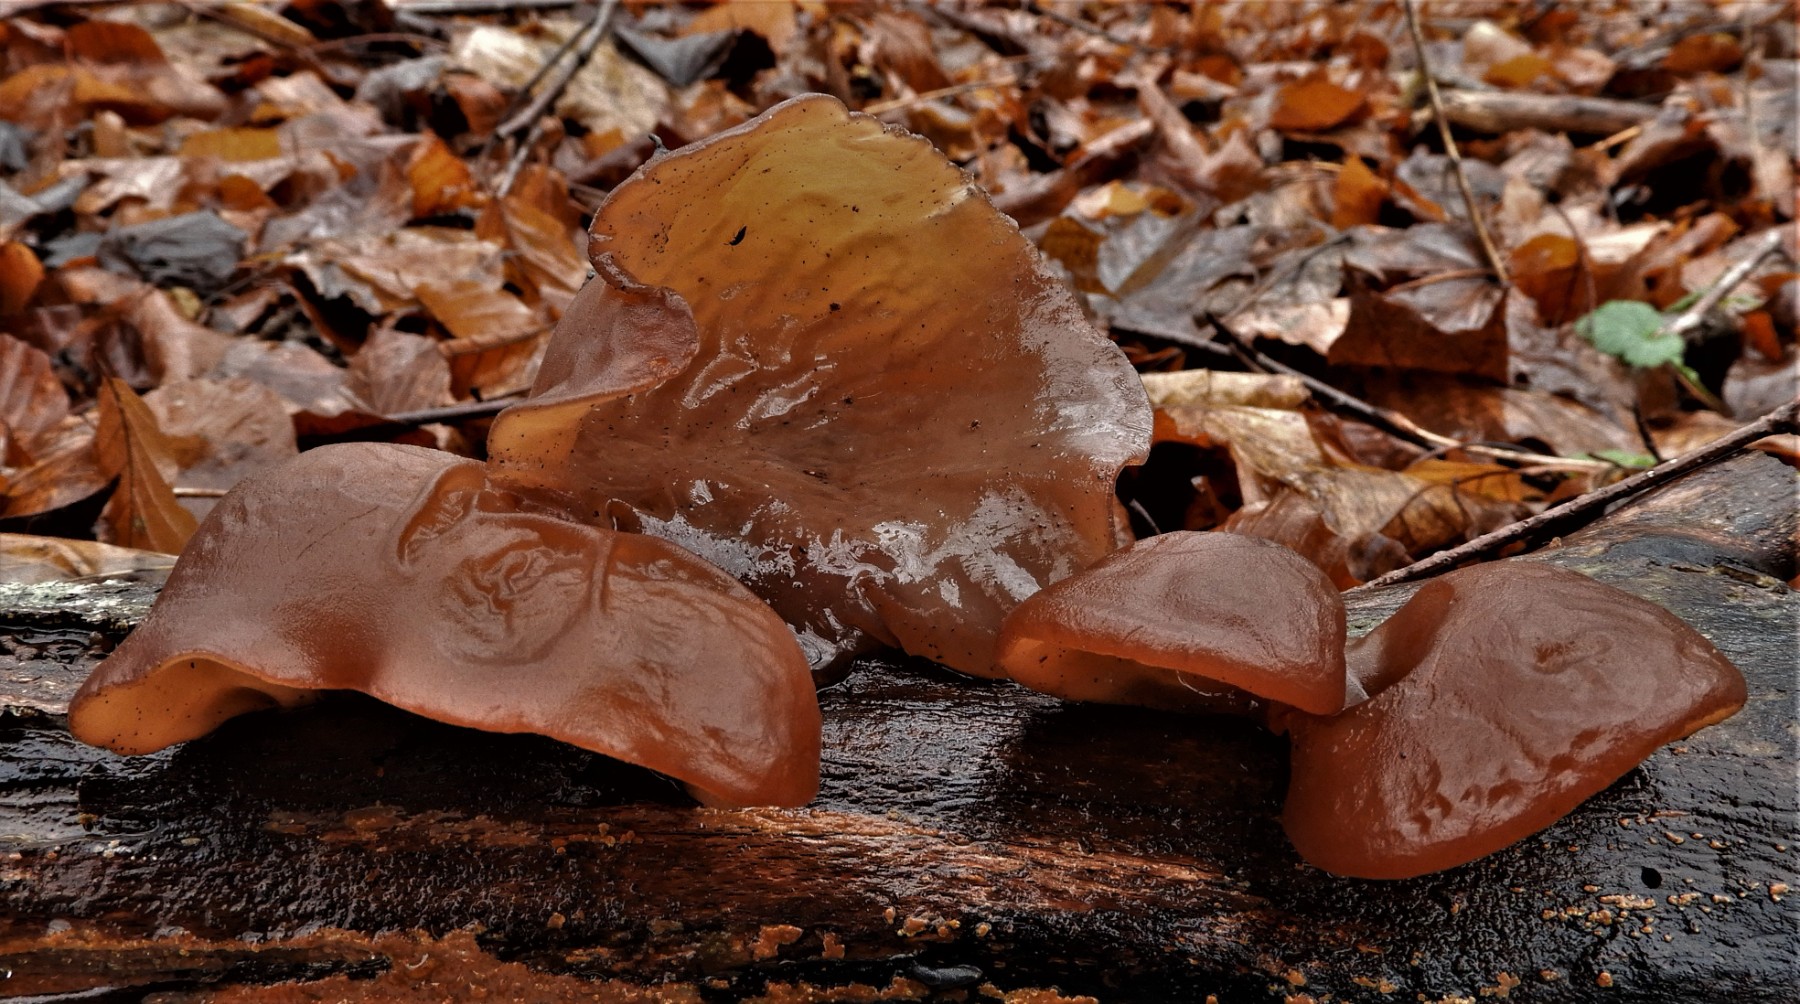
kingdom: Fungi
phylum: Basidiomycota
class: Agaricomycetes
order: Auriculariales
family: Auriculariaceae
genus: Auricularia
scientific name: Auricularia auricula-judae
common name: almindelig judasøre
